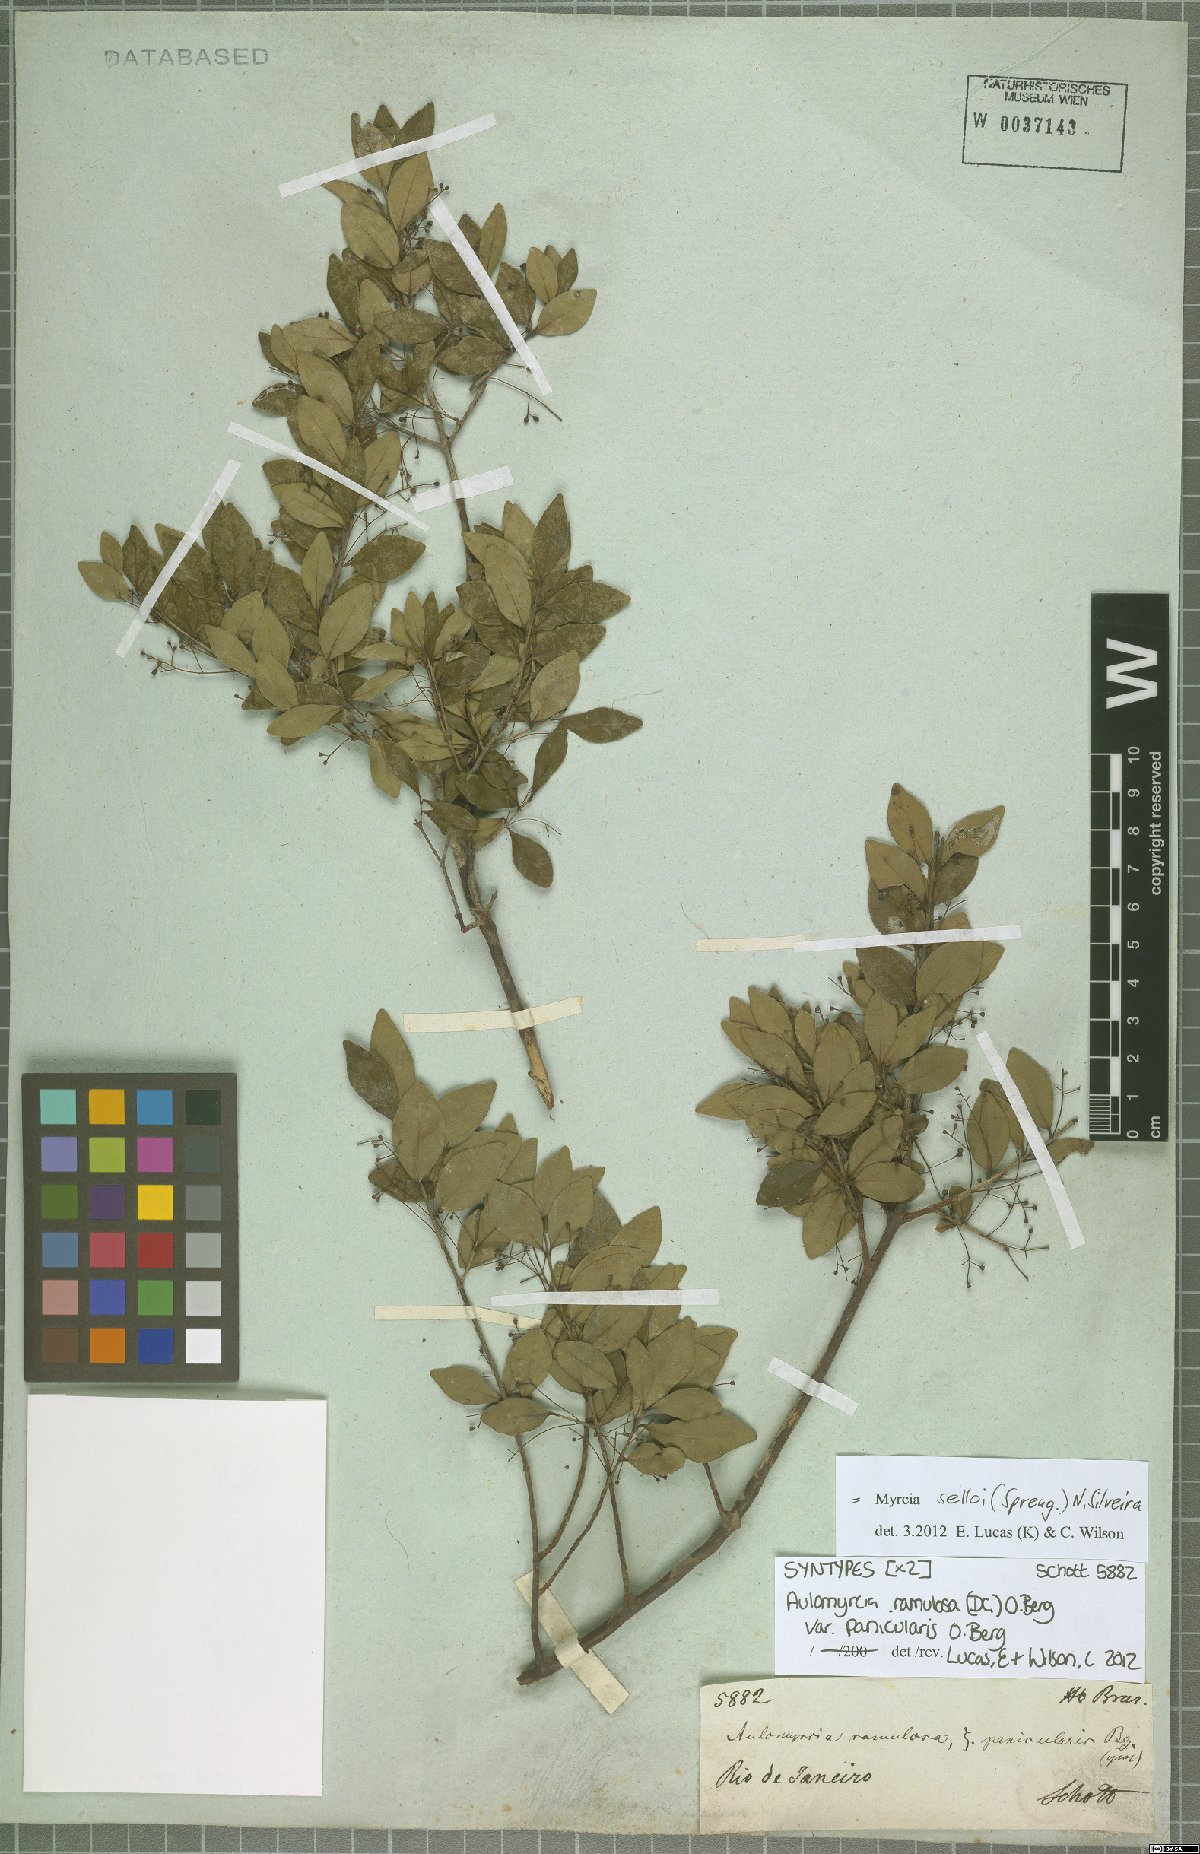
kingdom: Plantae
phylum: Tracheophyta
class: Magnoliopsida
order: Myrtales
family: Myrtaceae
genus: Myrcia
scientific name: Myrcia selloi
